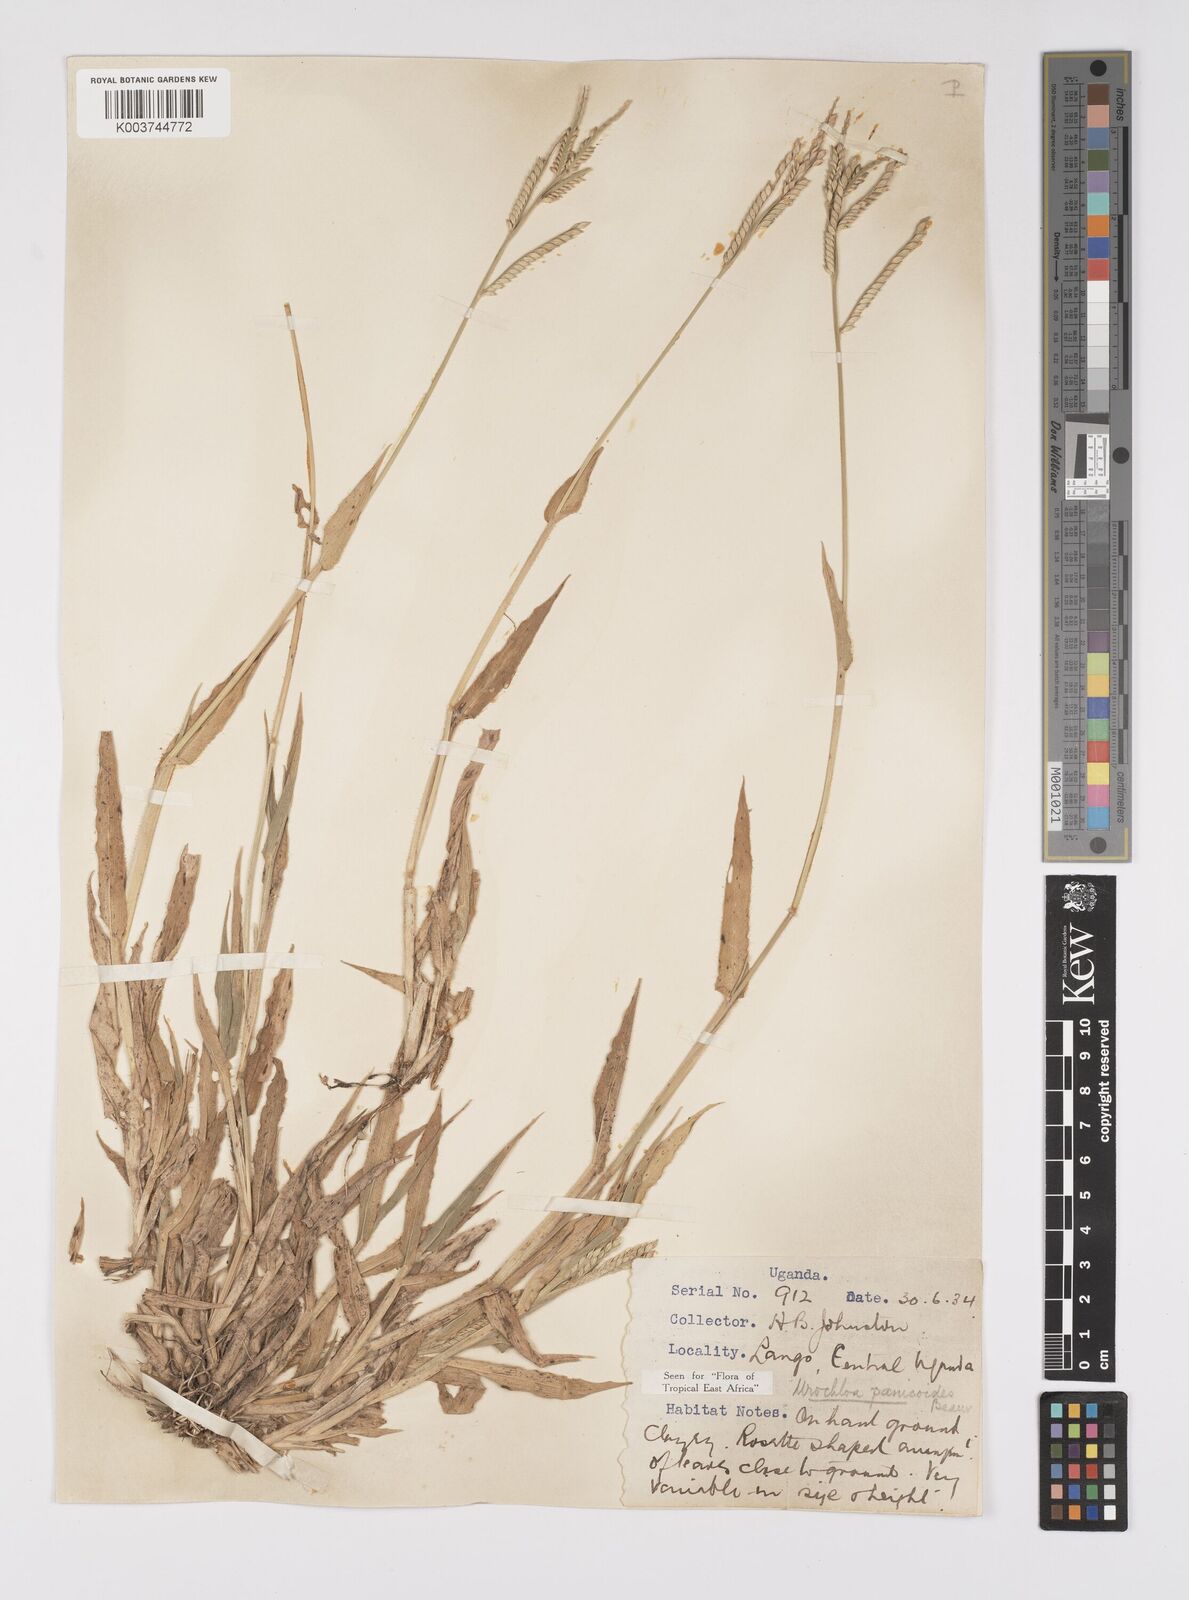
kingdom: Plantae
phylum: Tracheophyta
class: Liliopsida
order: Poales
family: Poaceae
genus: Urochloa
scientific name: Urochloa panicoides
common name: Sharp-flowered signal-grass
